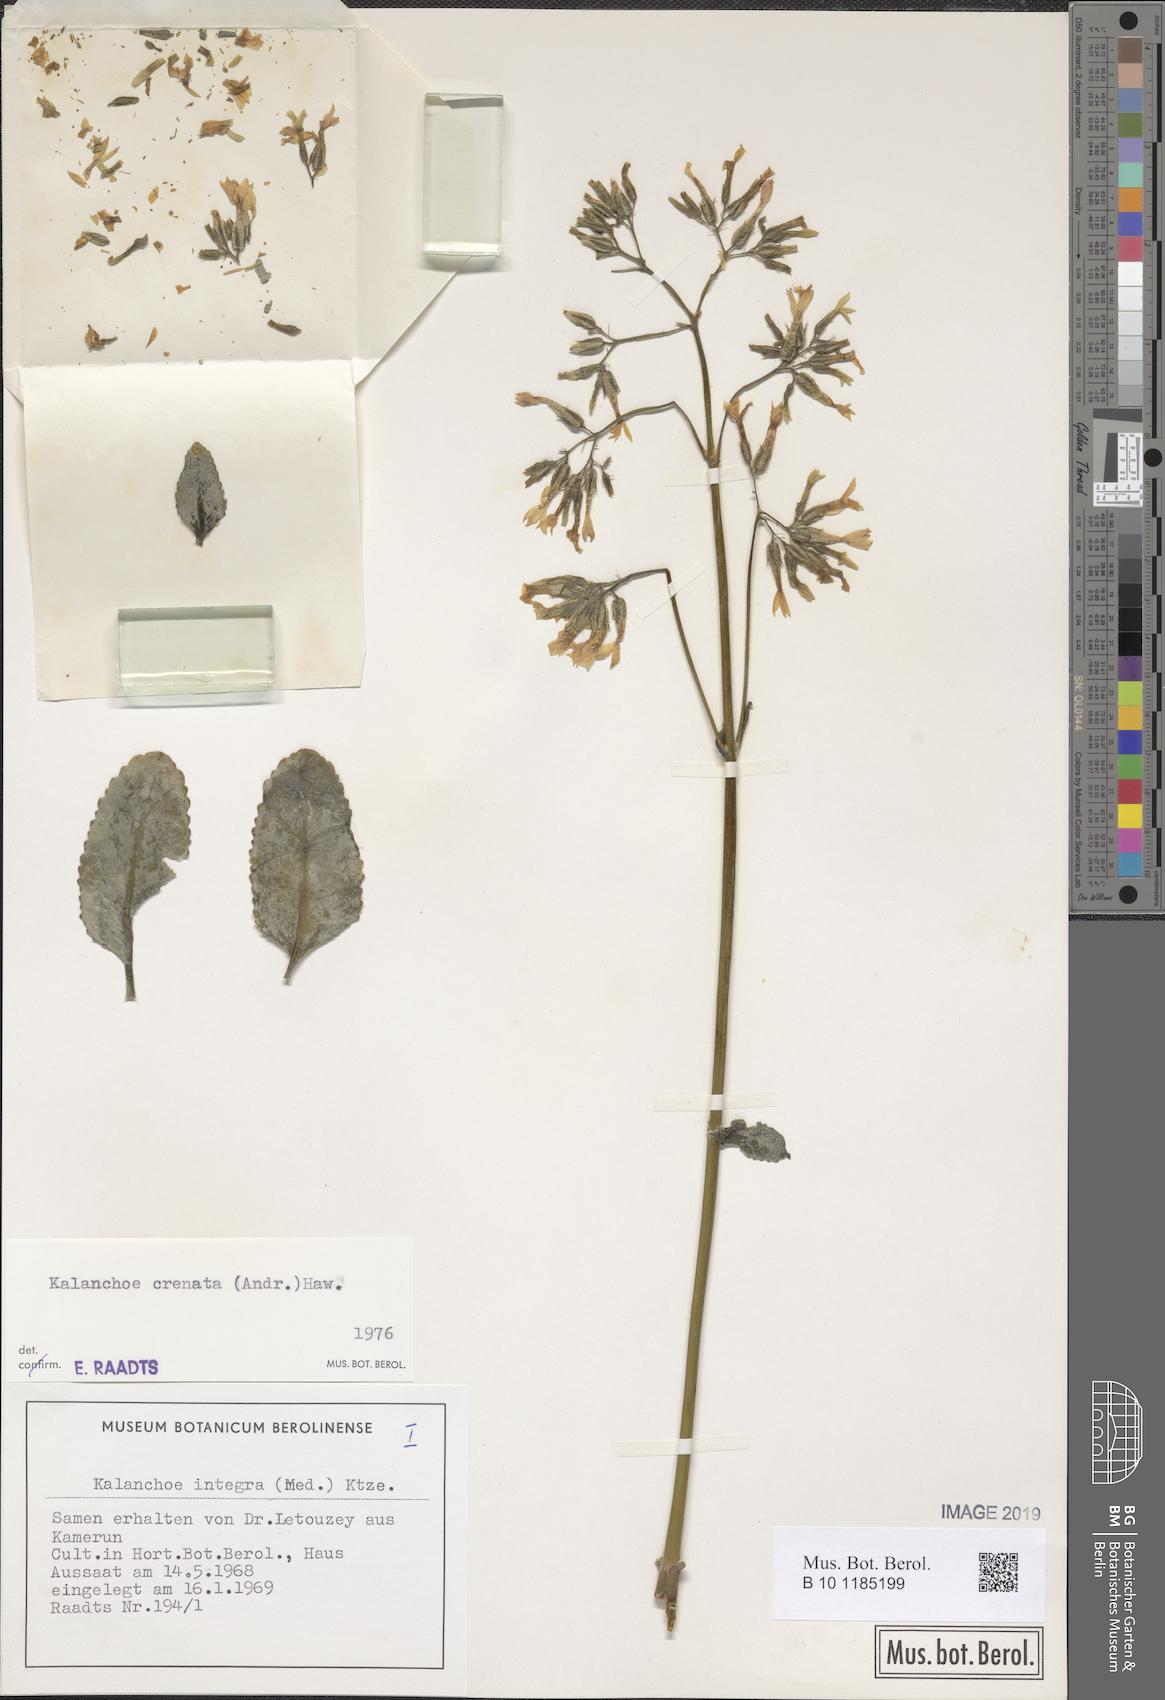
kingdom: Plantae
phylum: Tracheophyta
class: Magnoliopsida
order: Saxifragales
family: Crassulaceae
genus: Kalanchoe
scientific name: Kalanchoe crenata
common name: Neverdie
